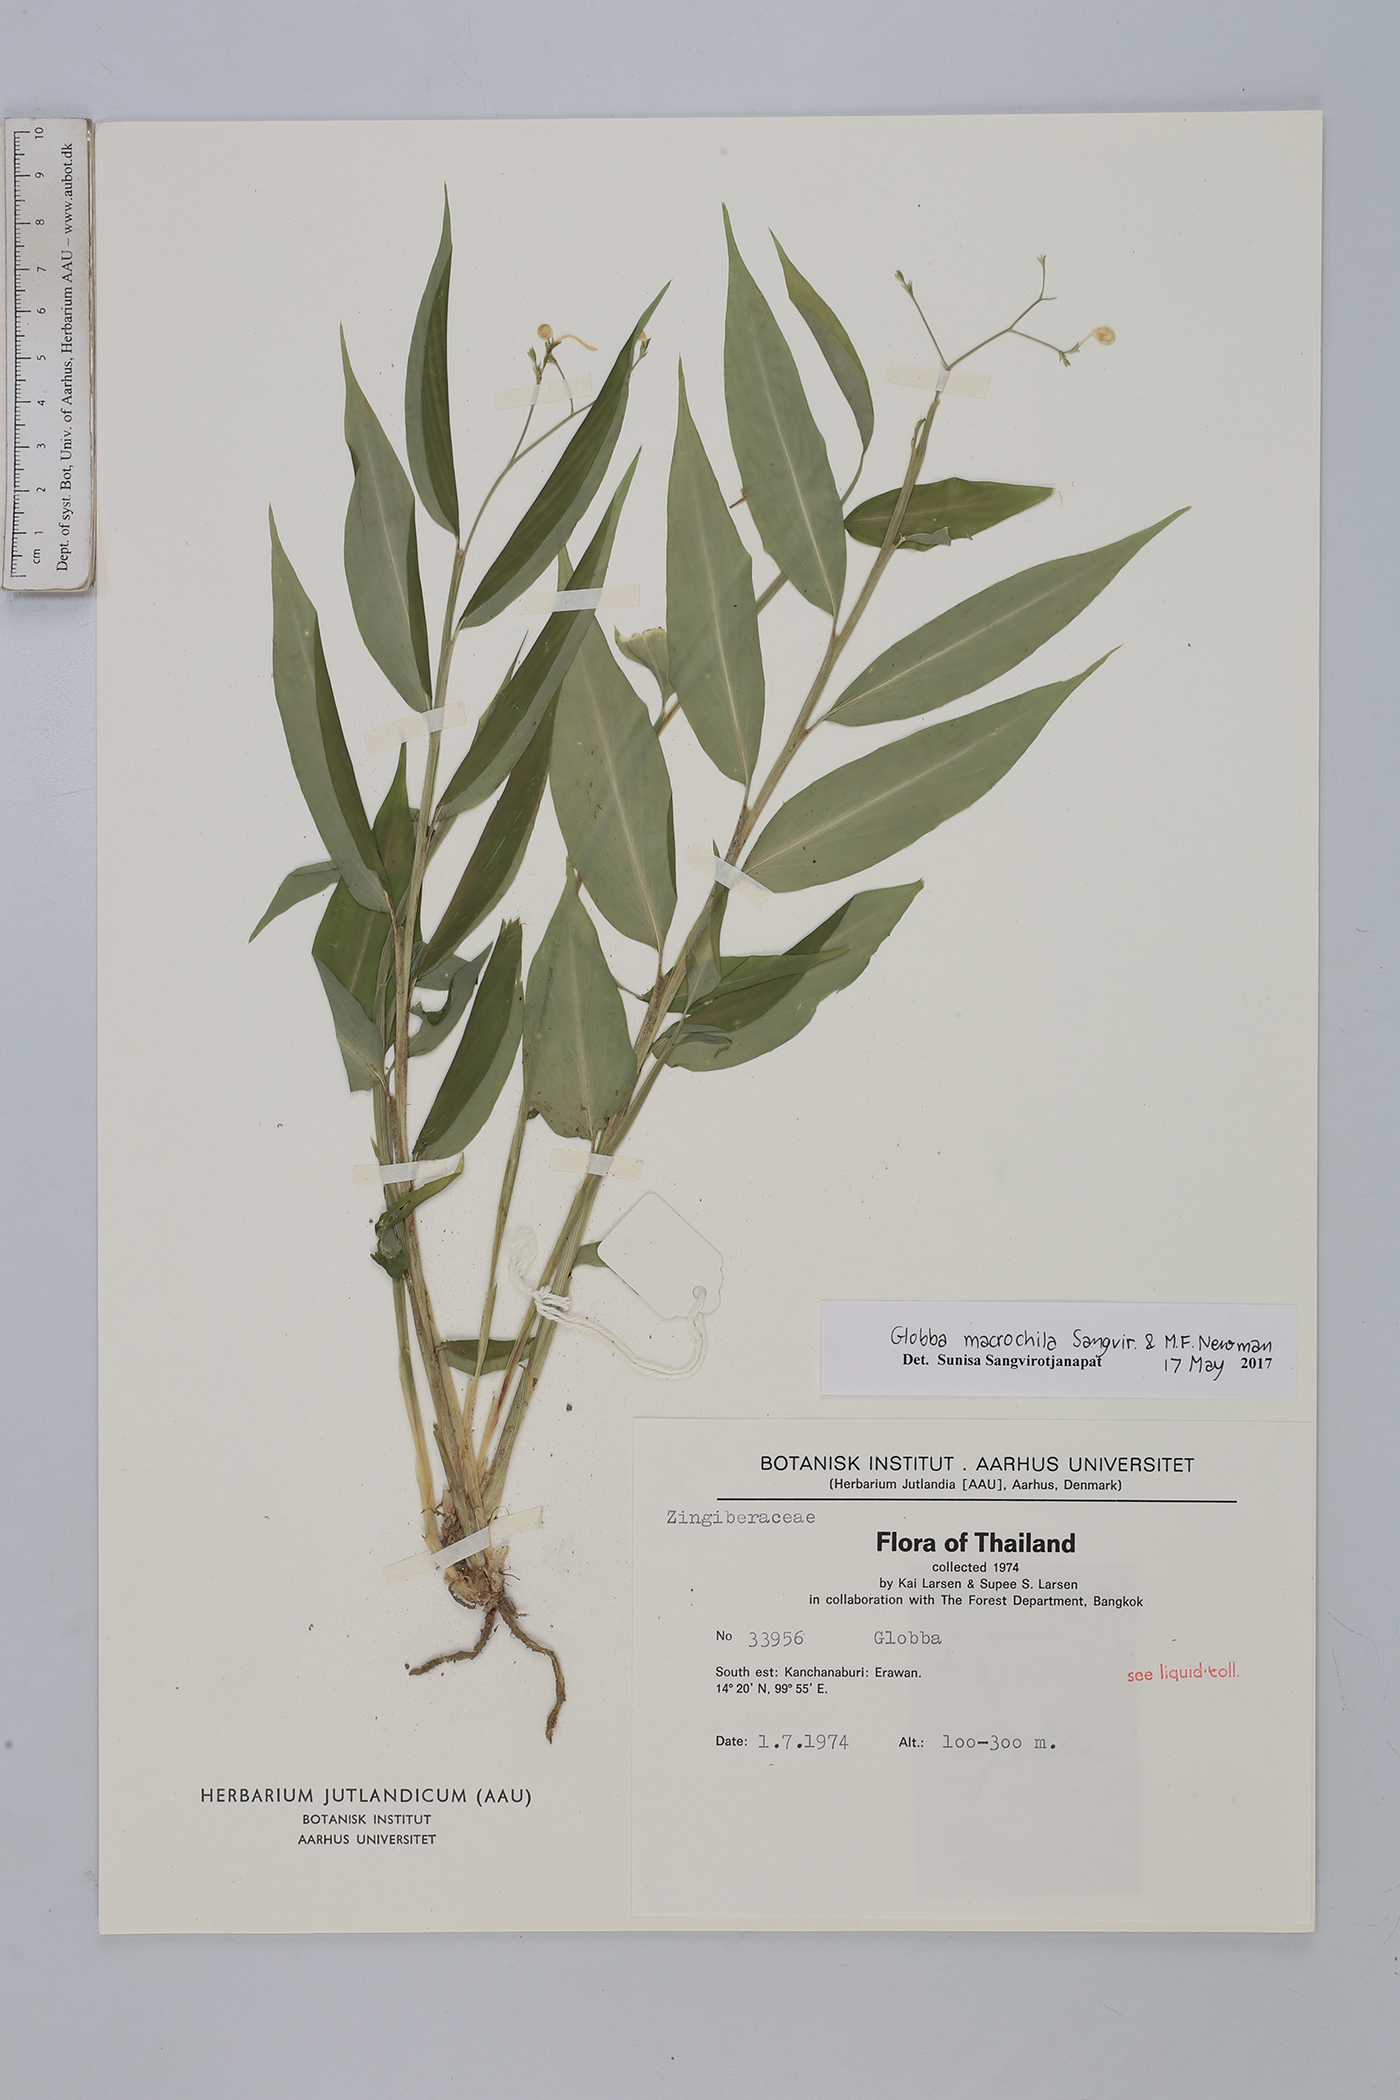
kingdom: Plantae
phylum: Tracheophyta
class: Liliopsida
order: Zingiberales
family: Zingiberaceae
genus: Globba
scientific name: Globba macrochila
